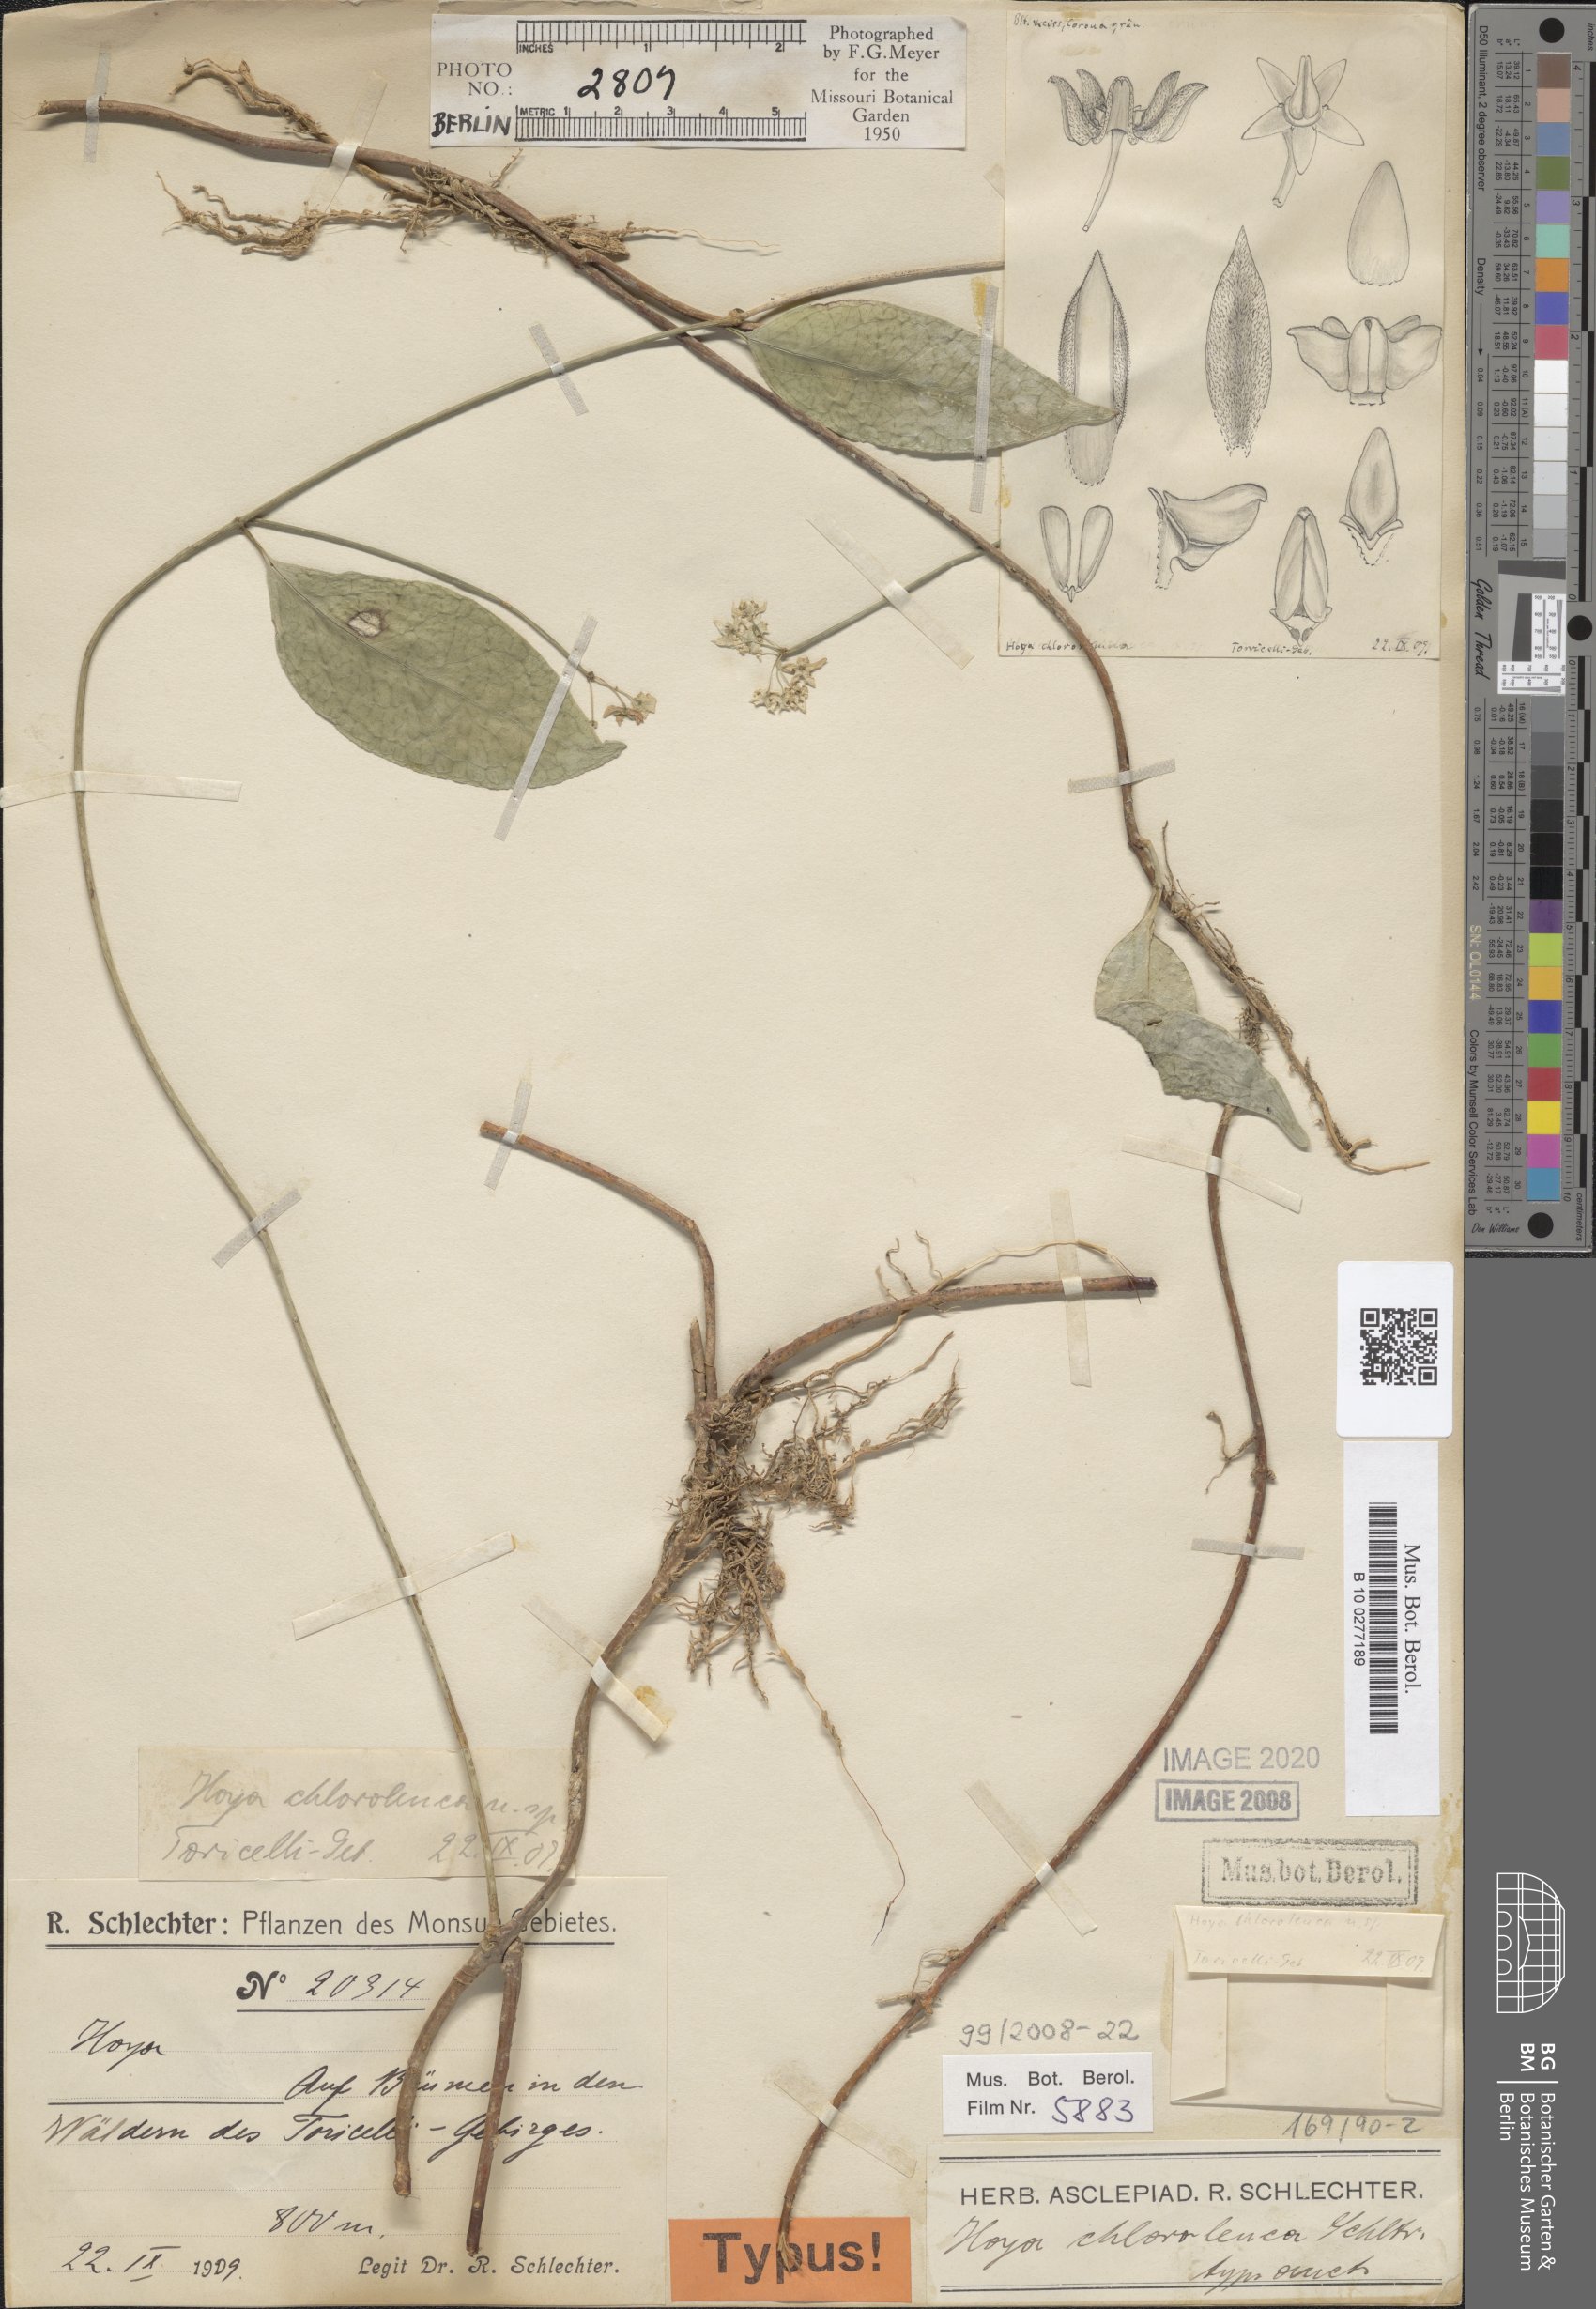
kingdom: Plantae
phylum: Tracheophyta
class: Magnoliopsida
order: Gentianales
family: Apocynaceae
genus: Hoya
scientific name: Hoya chloroleuca
